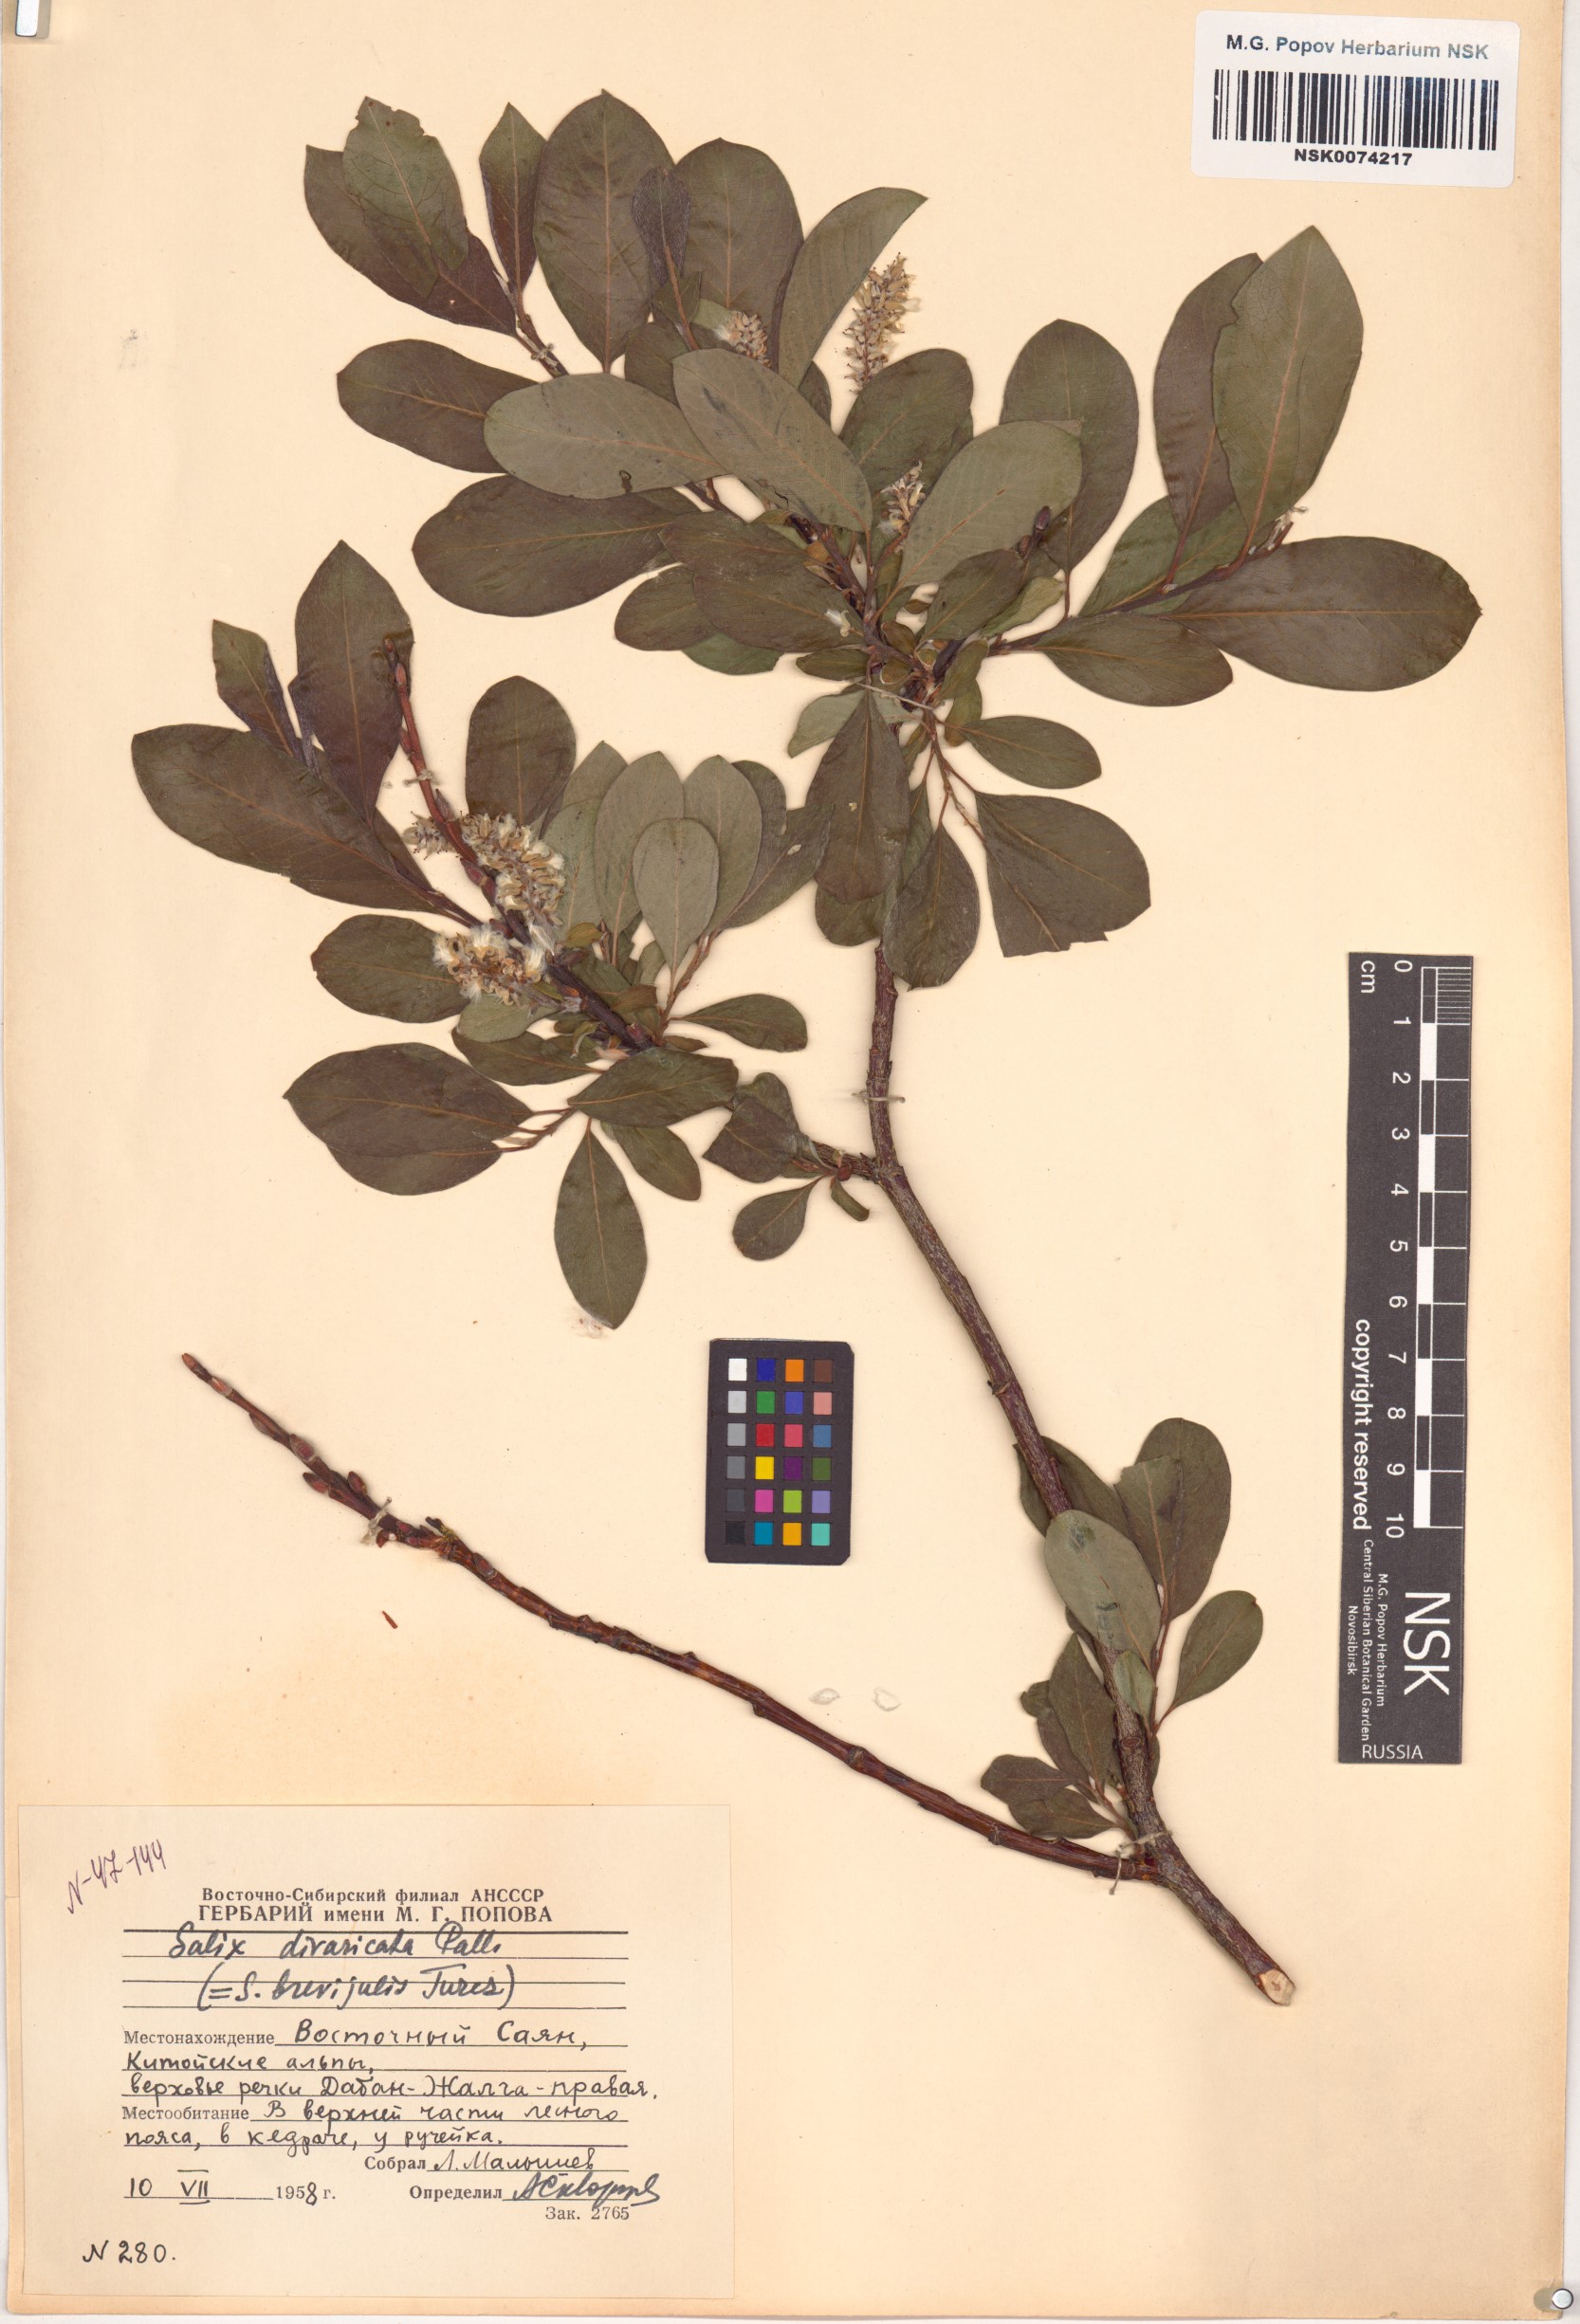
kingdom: Plantae
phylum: Tracheophyta
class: Magnoliopsida
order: Malpighiales
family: Salicaceae
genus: Salix
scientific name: Salix divaricata
